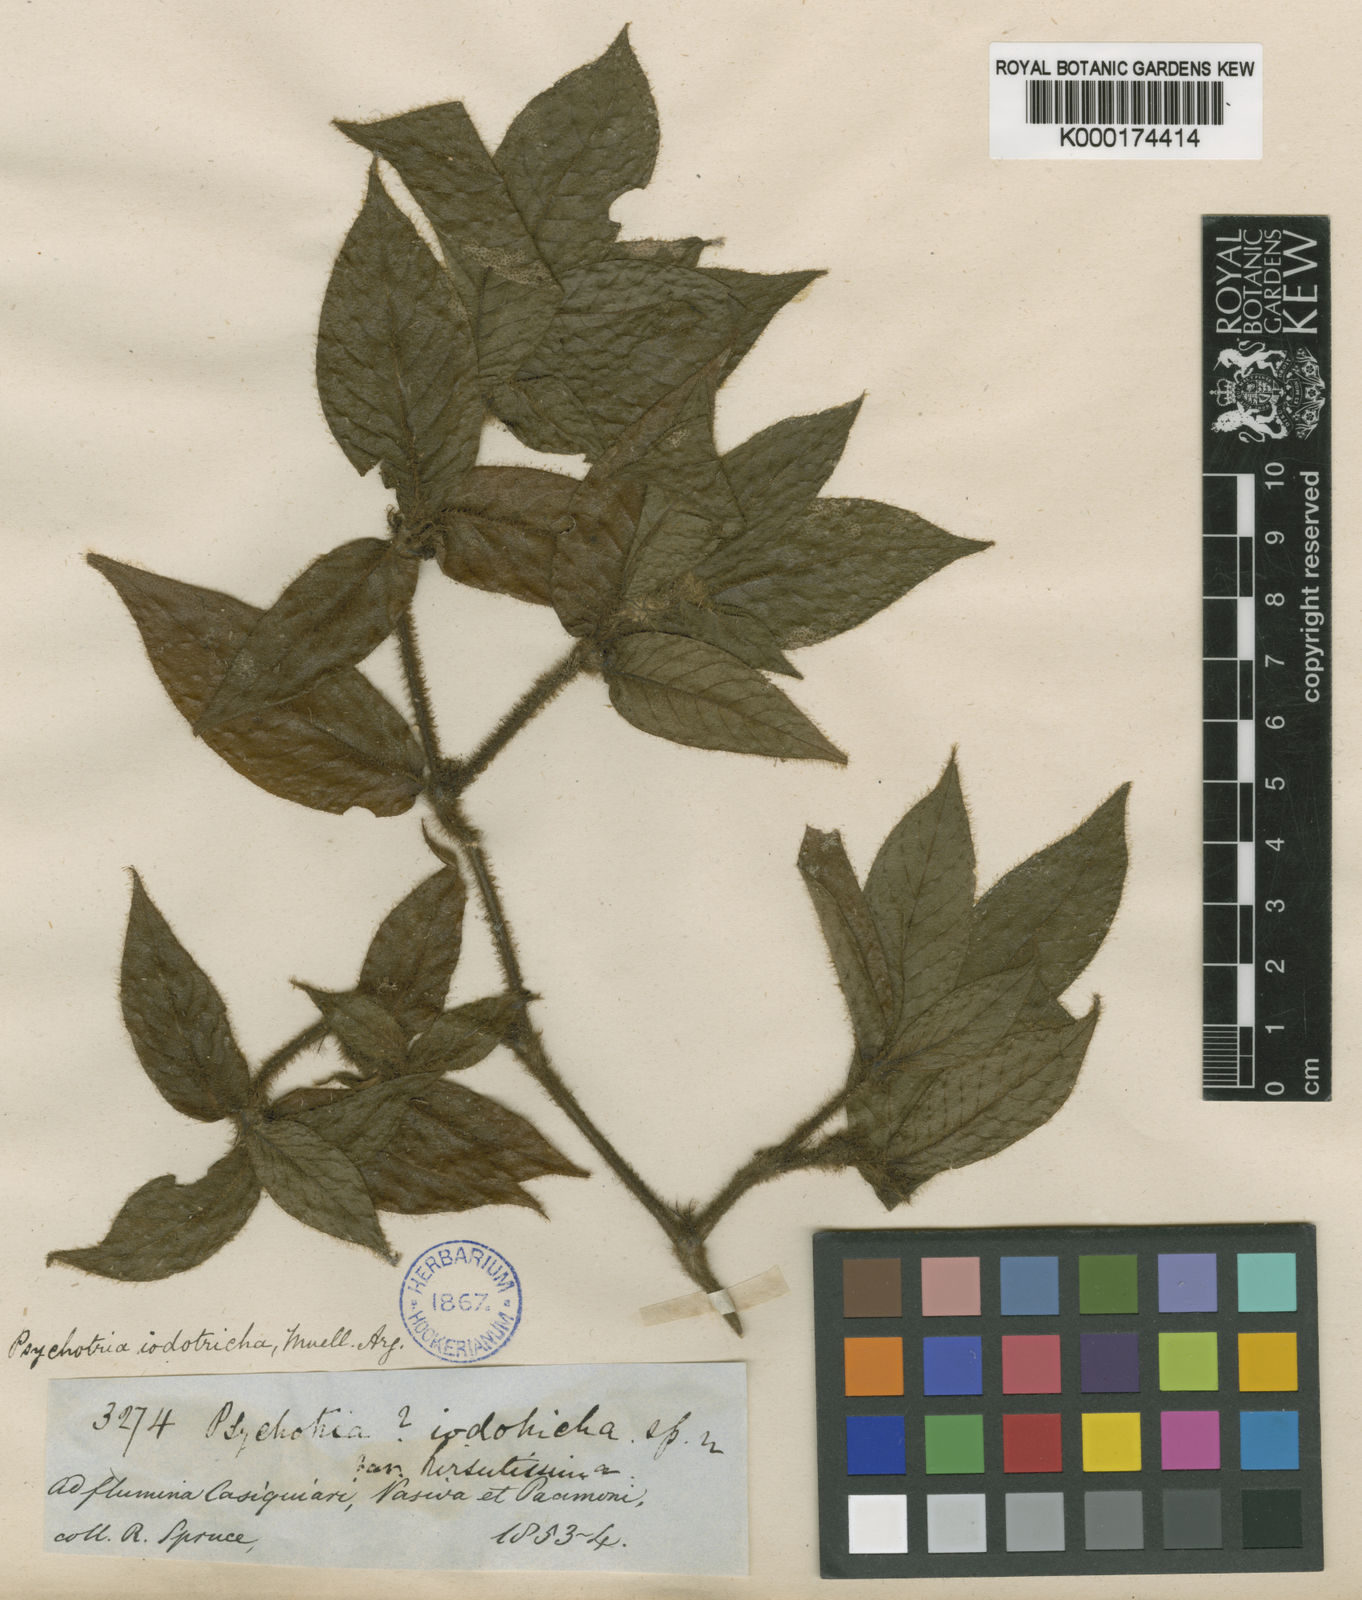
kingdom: Plantae
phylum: Tracheophyta
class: Magnoliopsida
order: Gentianales
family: Rubiaceae
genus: Psychotria
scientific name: Psychotria
